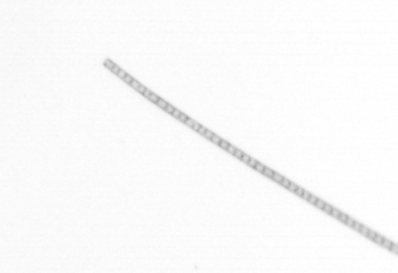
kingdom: Chromista
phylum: Ochrophyta
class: Bacillariophyceae
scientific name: Bacillariophyceae
